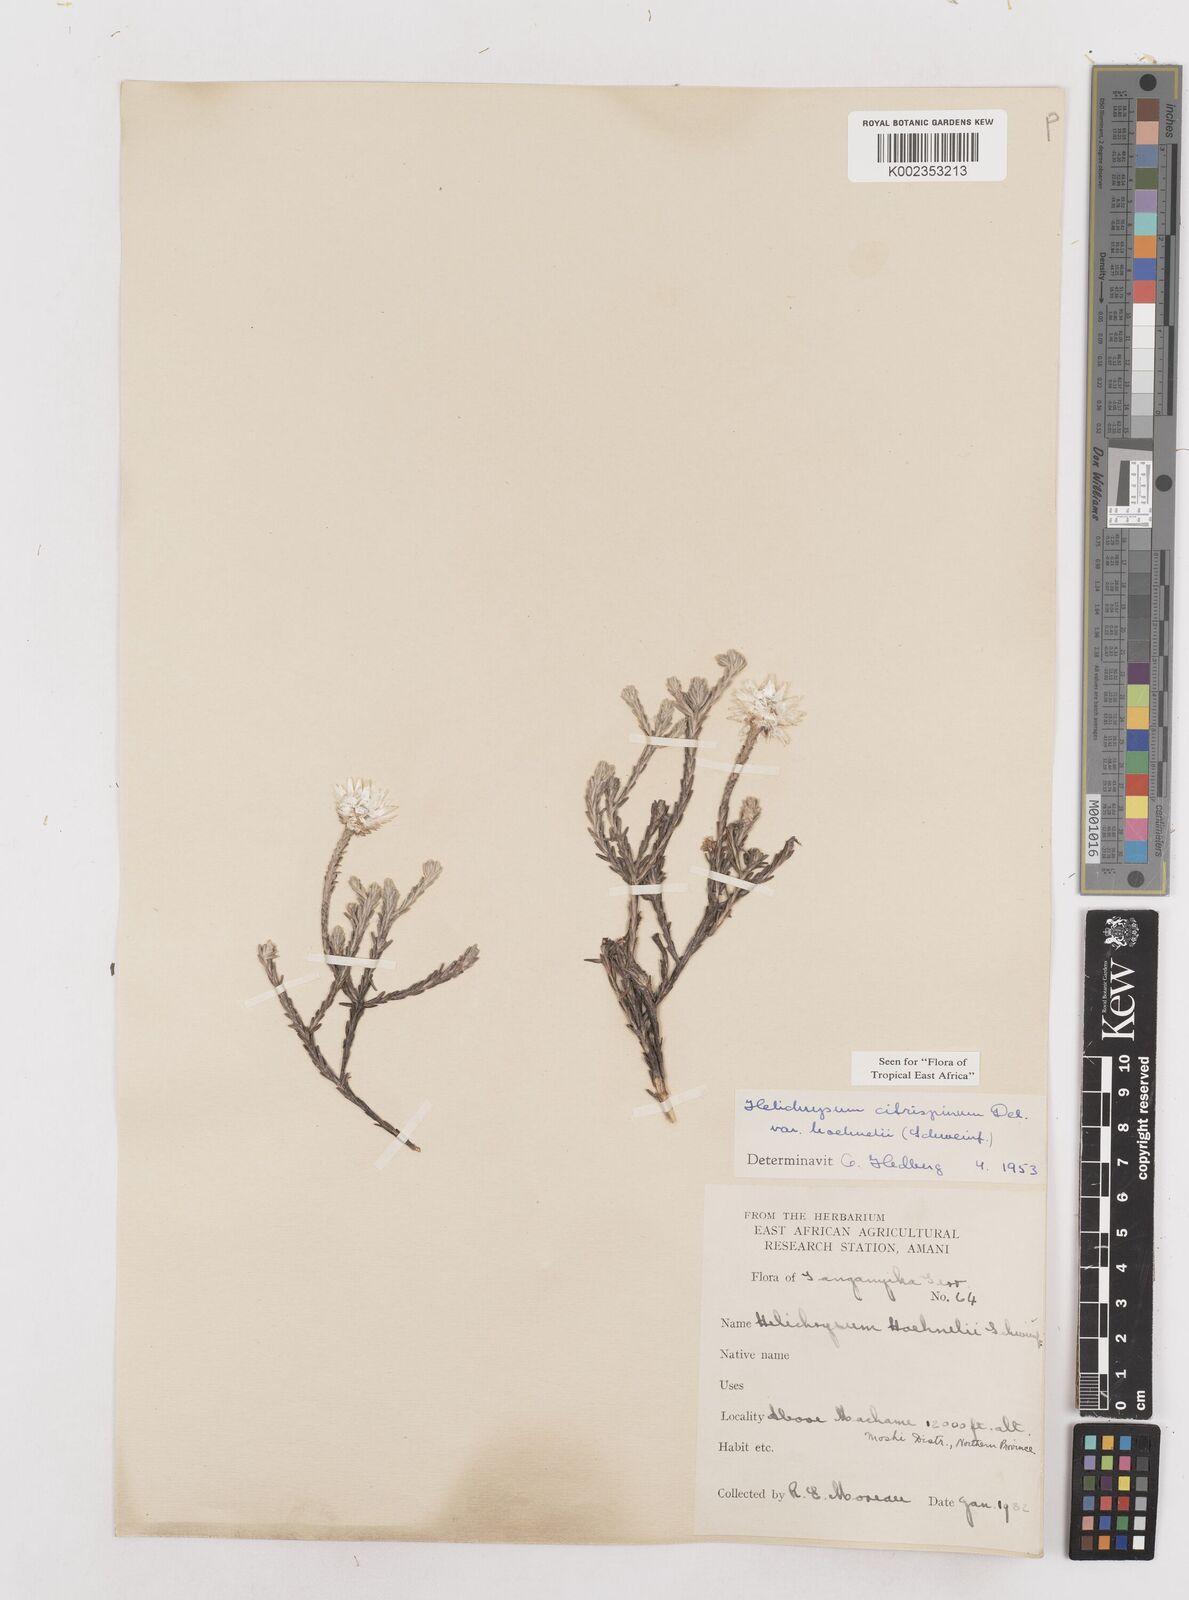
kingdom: Plantae
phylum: Tracheophyta
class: Magnoliopsida
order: Asterales
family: Asteraceae
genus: Helichrysum
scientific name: Helichrysum citrispinum
